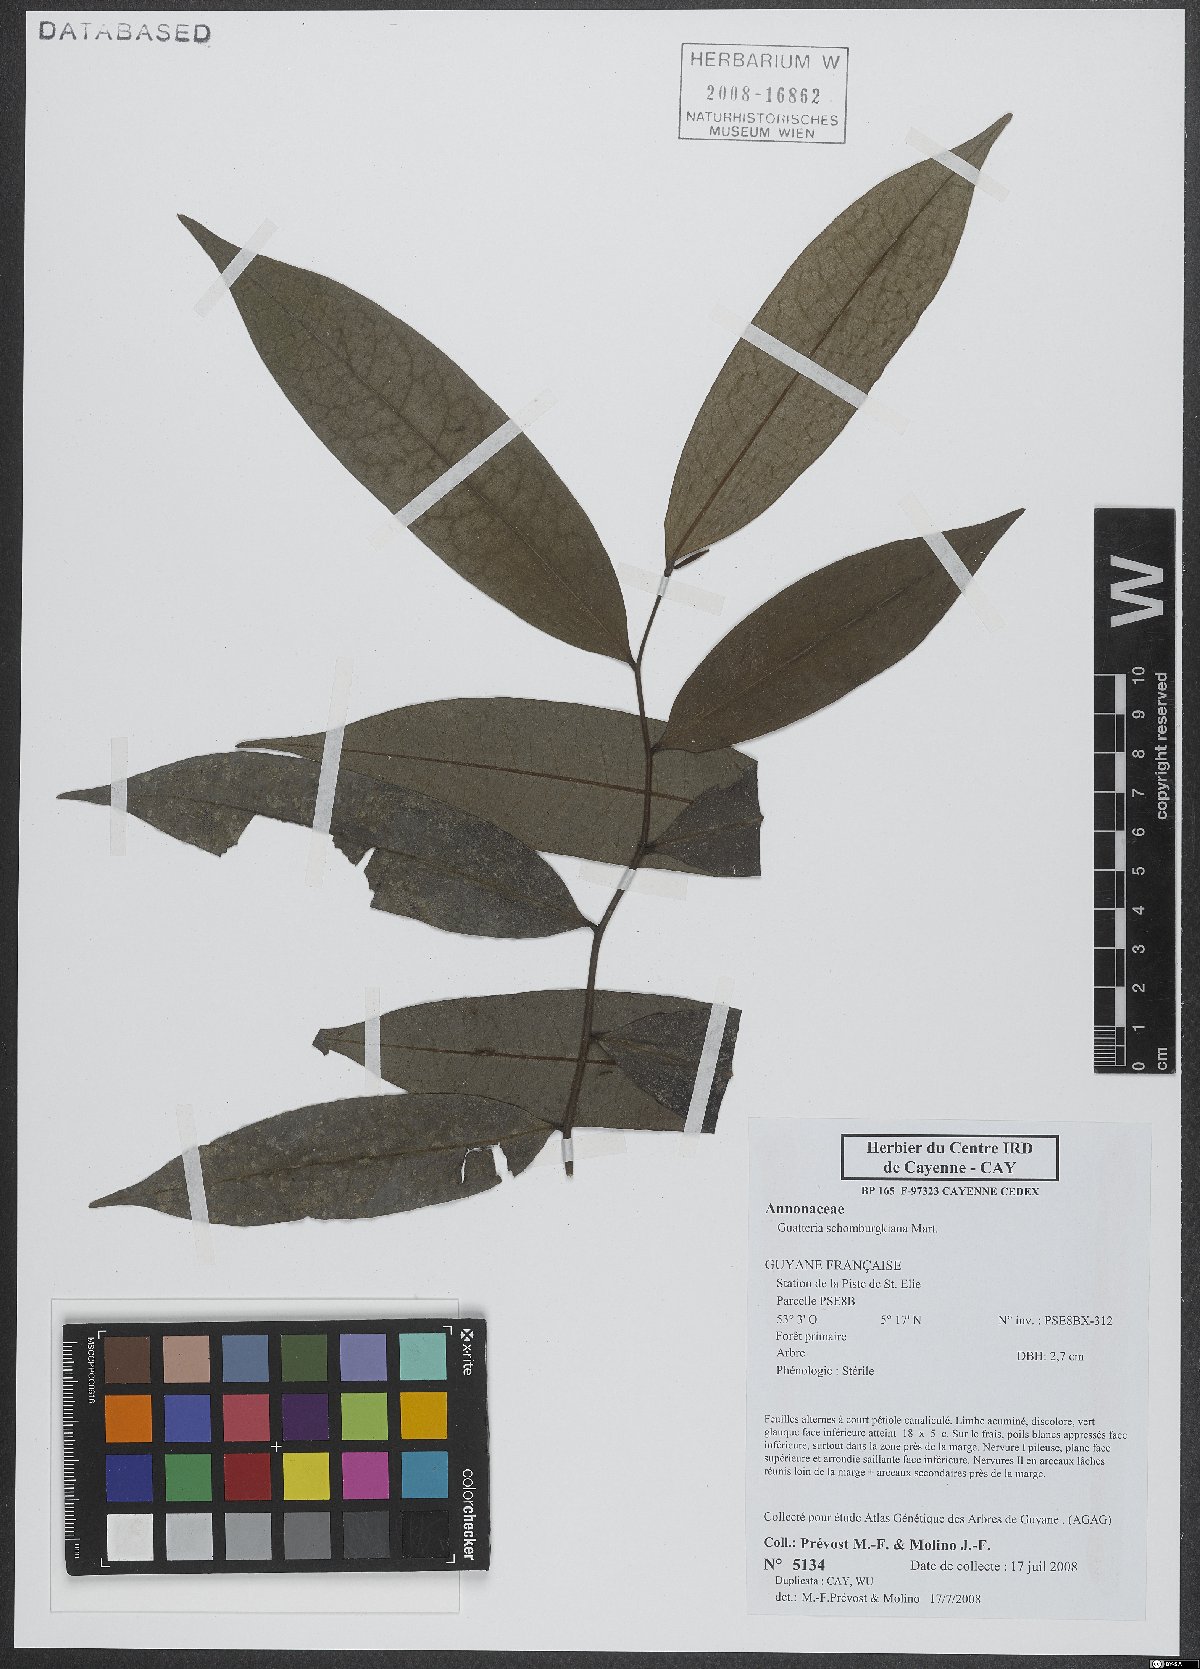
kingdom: Plantae
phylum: Tracheophyta
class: Magnoliopsida
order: Magnoliales
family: Annonaceae
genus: Guatteria
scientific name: Guatteria schomburgkiana
